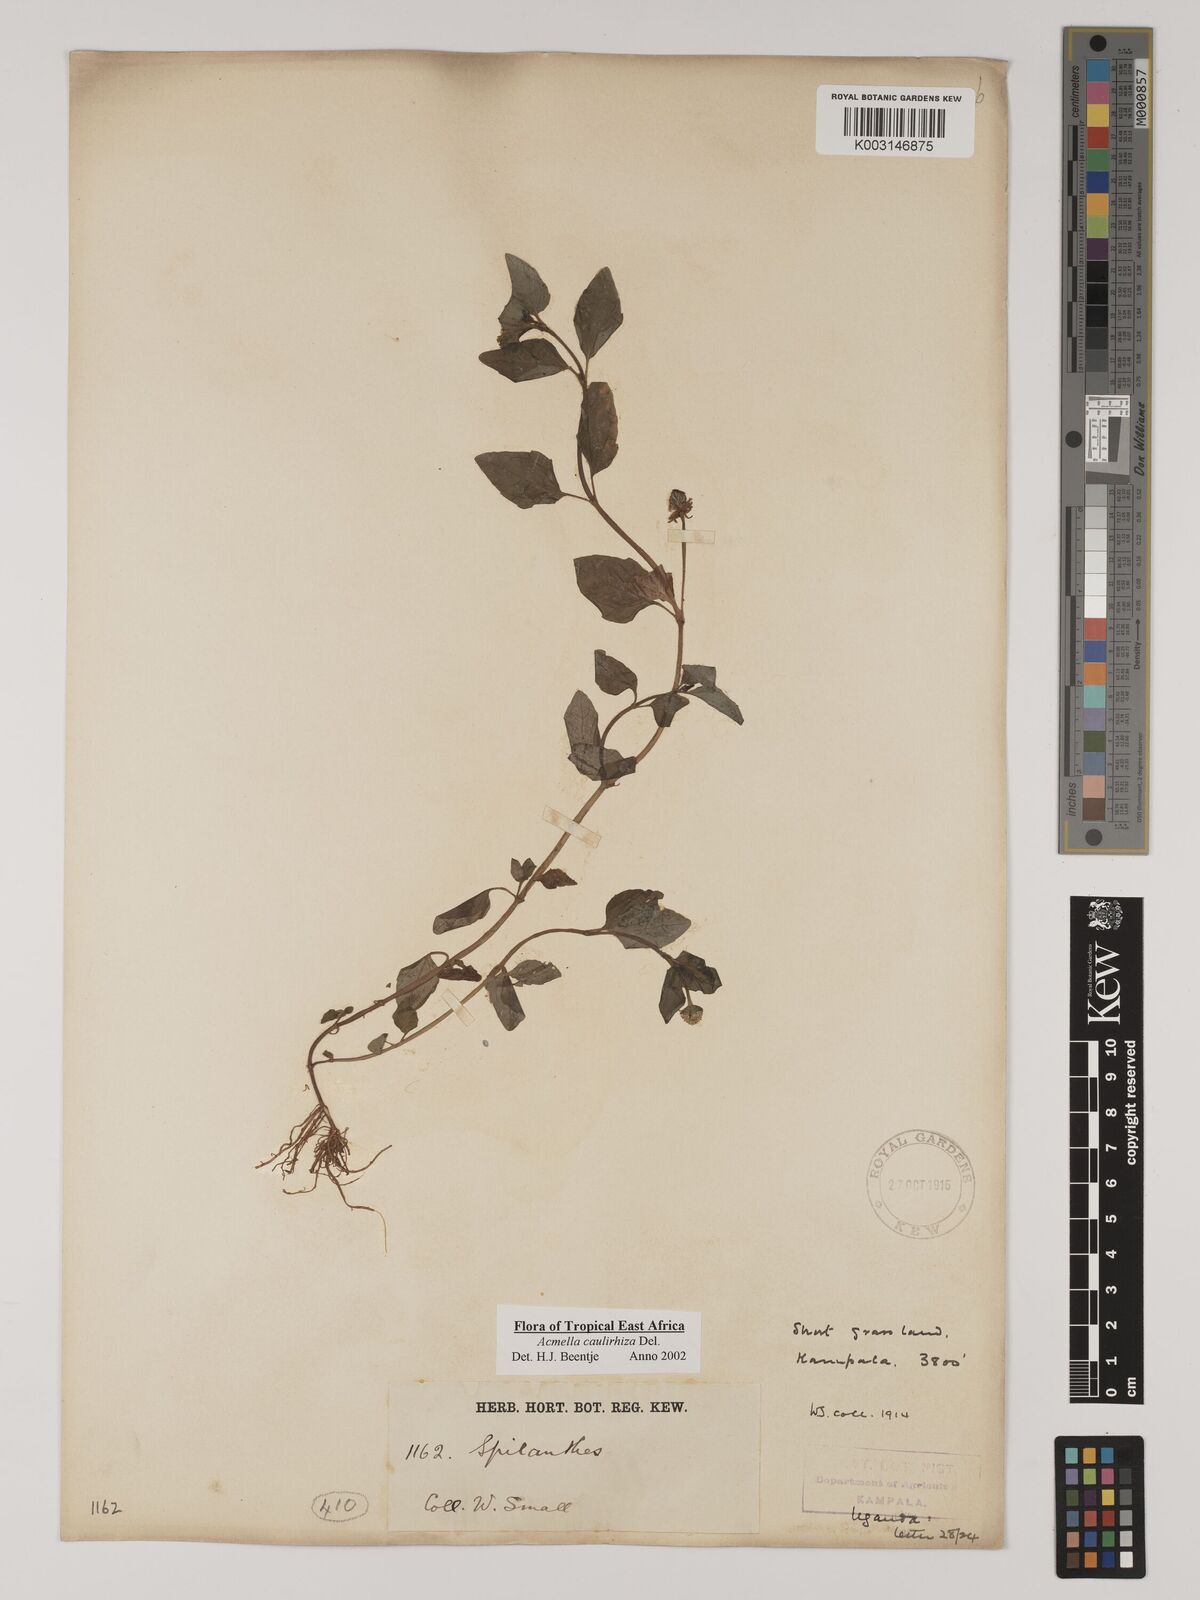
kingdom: Plantae
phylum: Tracheophyta
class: Magnoliopsida
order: Asterales
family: Asteraceae
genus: Acmella
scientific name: Acmella caulirhiza
